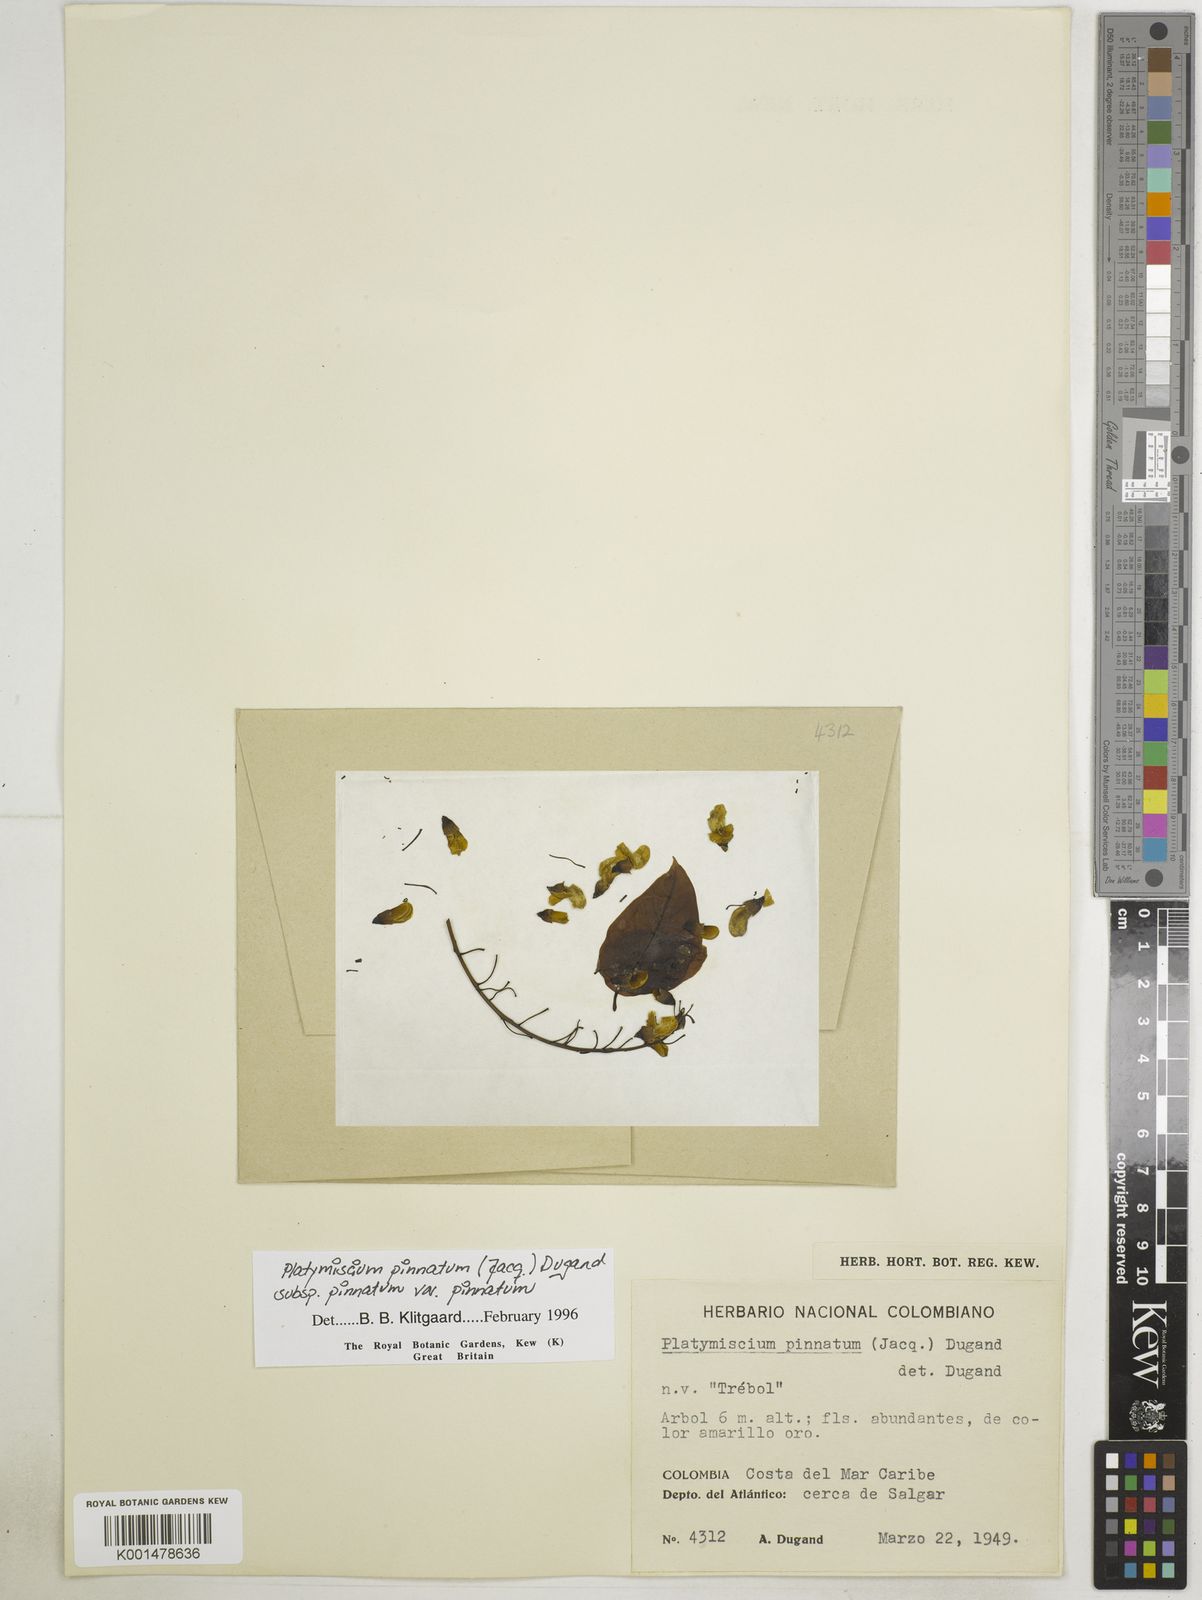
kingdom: Plantae
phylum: Tracheophyta
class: Magnoliopsida
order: Fabales
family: Fabaceae
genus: Platymiscium
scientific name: Platymiscium pinnatum
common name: Panama redwood
